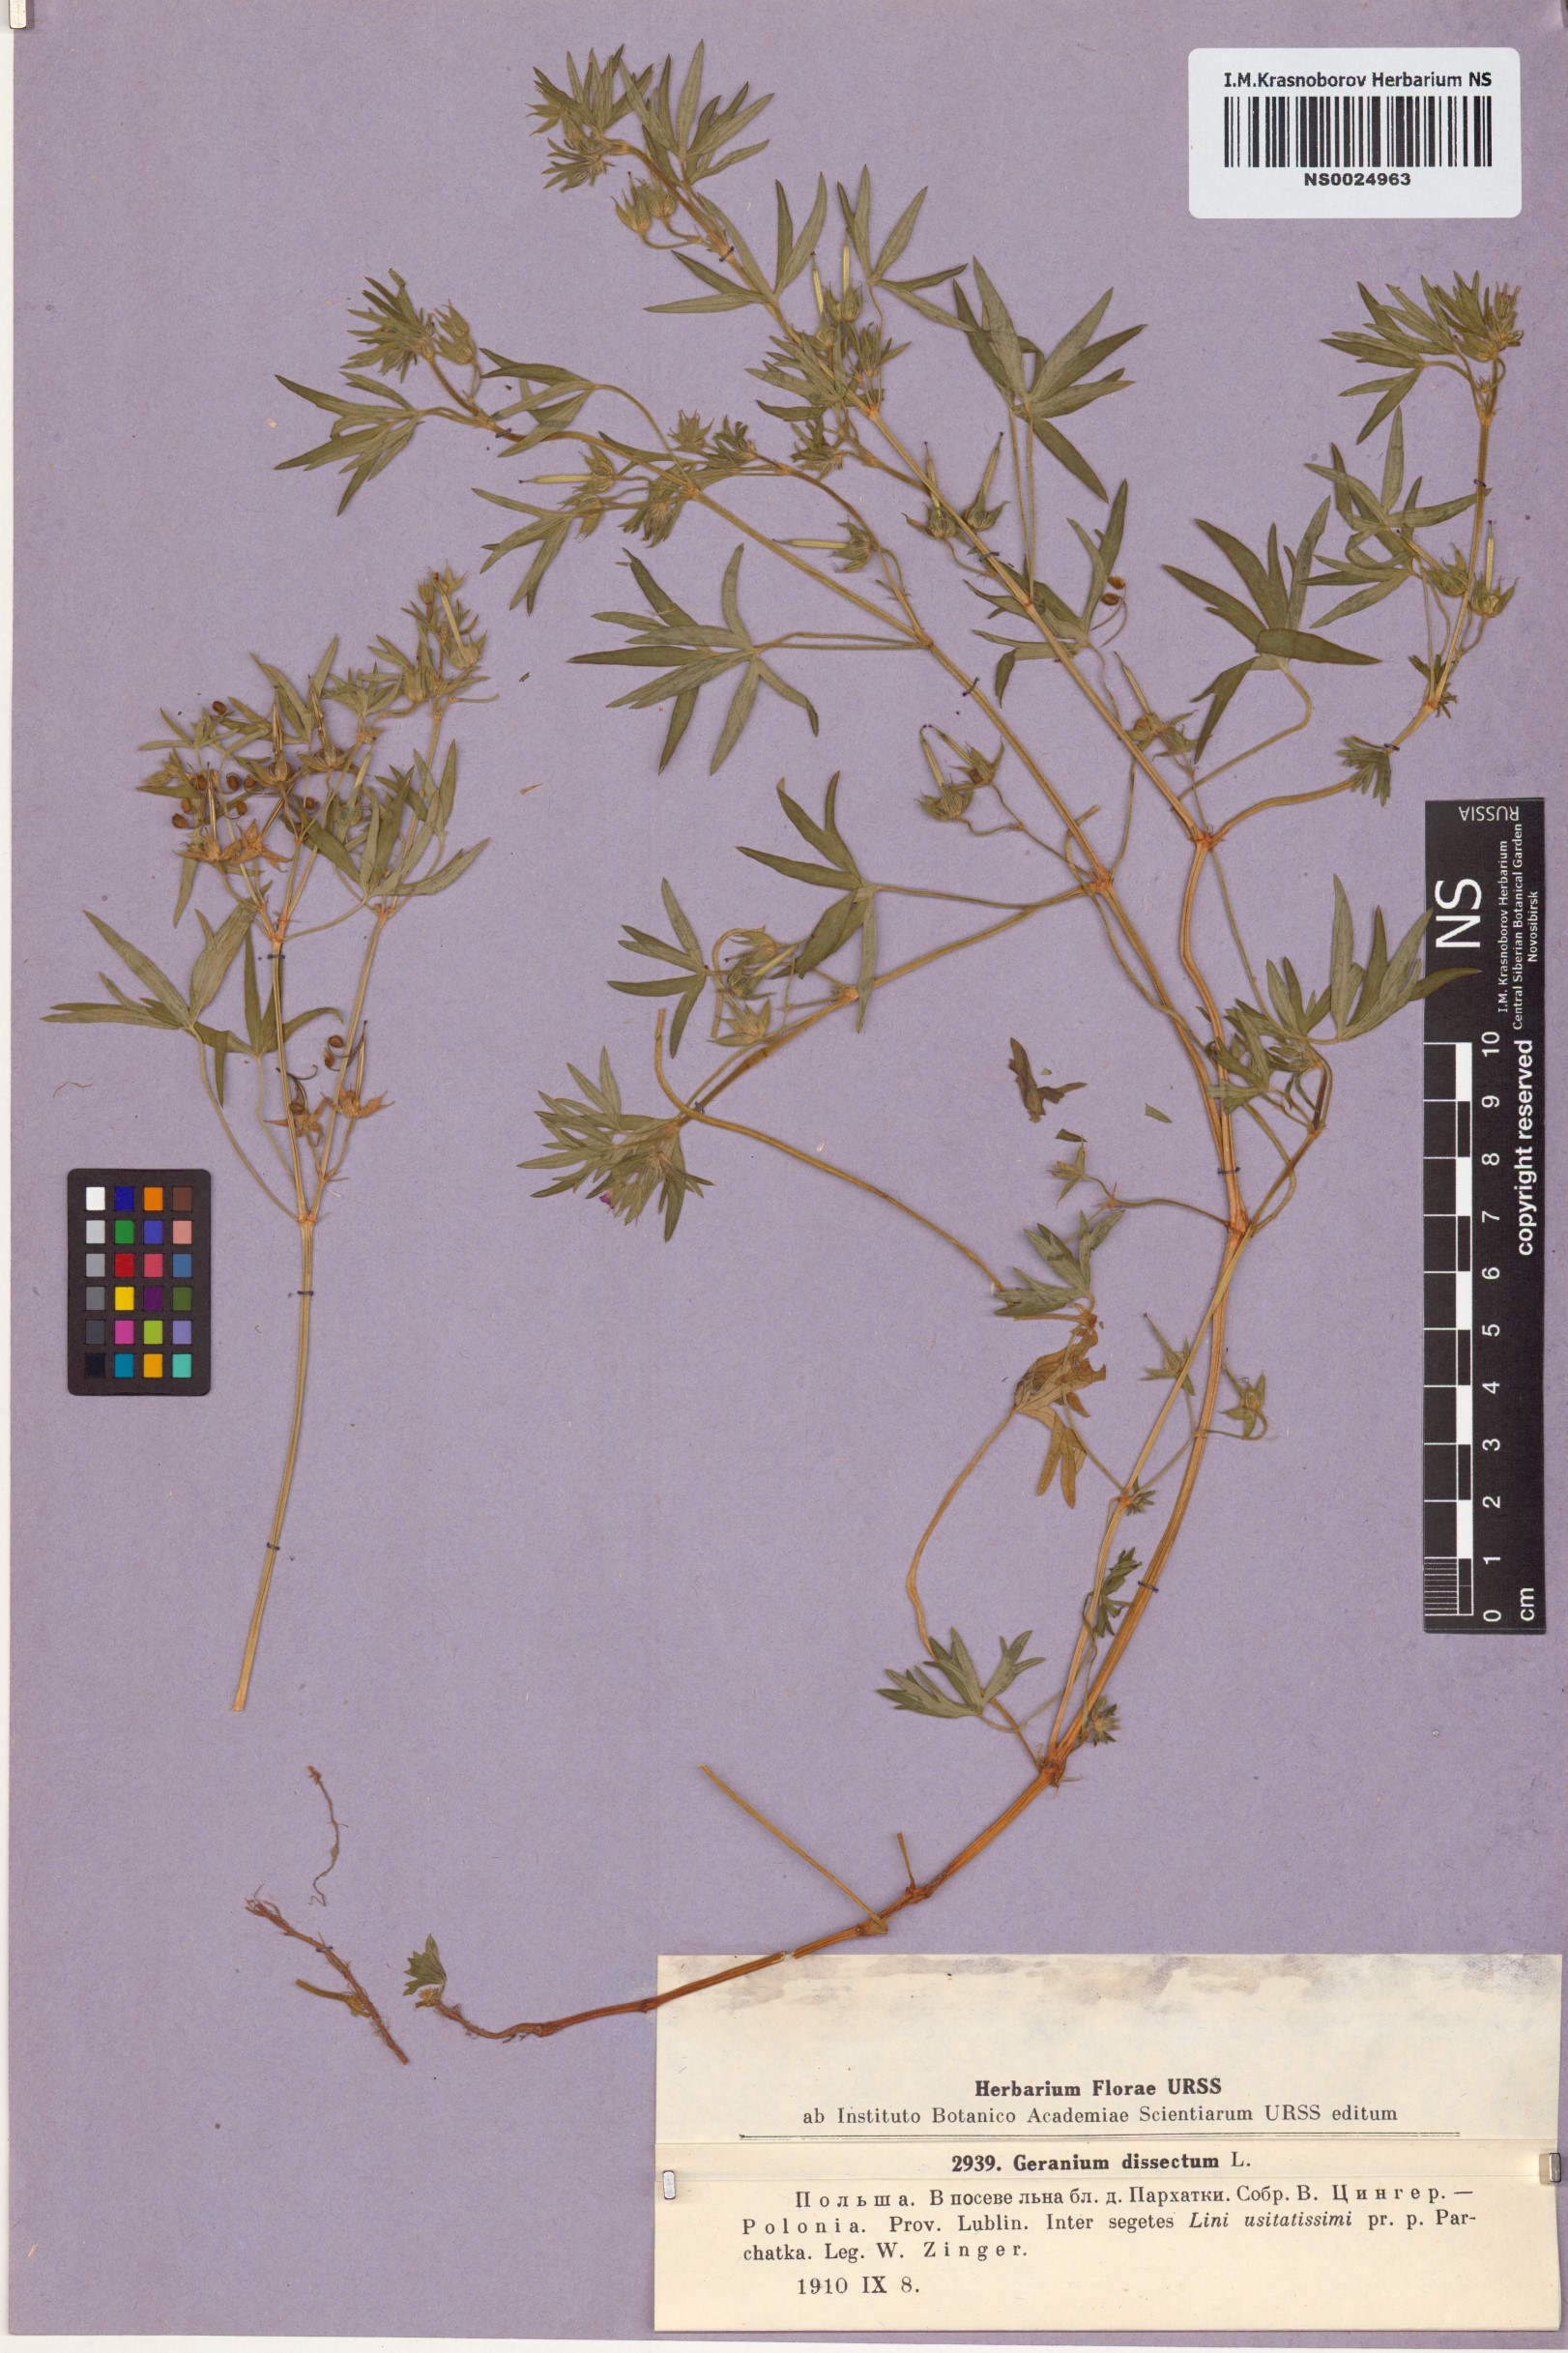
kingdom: Plantae
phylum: Tracheophyta
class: Magnoliopsida
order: Geraniales
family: Geraniaceae
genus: Geranium
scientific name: Geranium dissectum
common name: Cut-leaved crane's-bill
